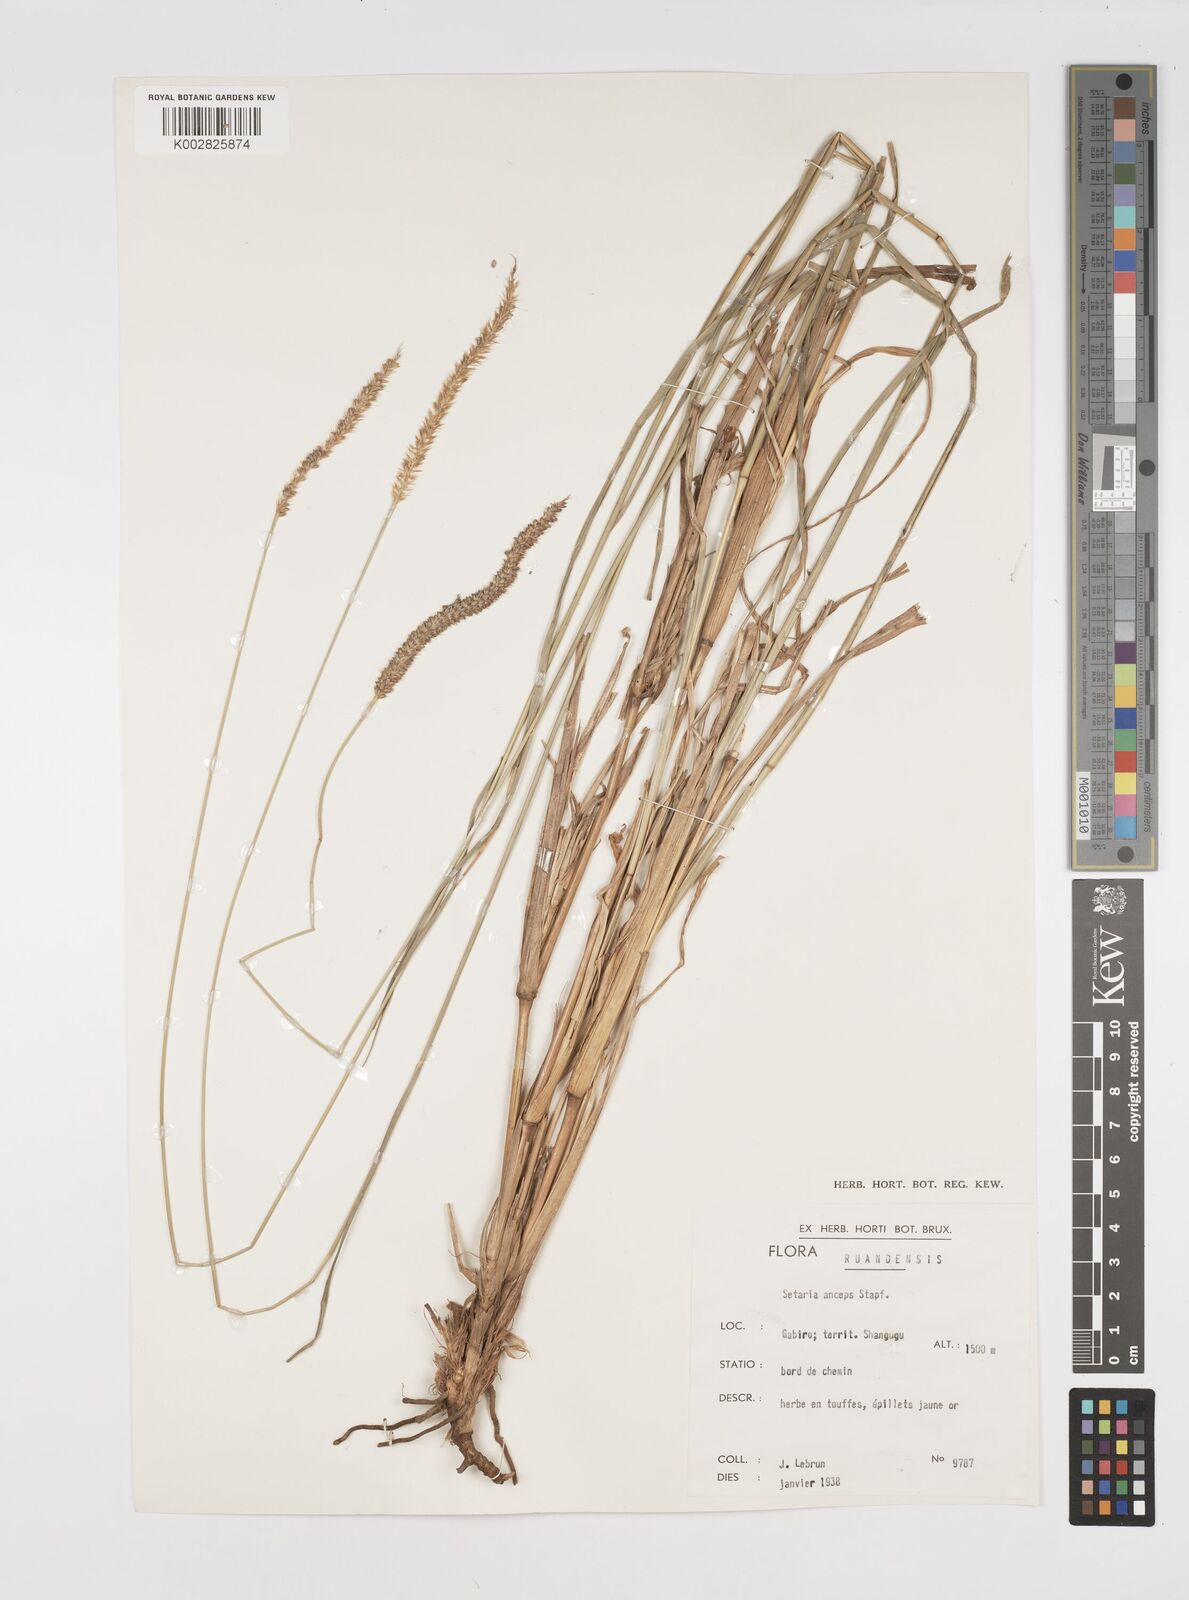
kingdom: Plantae
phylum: Tracheophyta
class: Liliopsida
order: Poales
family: Poaceae
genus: Setaria
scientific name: Setaria sphacelata
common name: African bristlegrass
